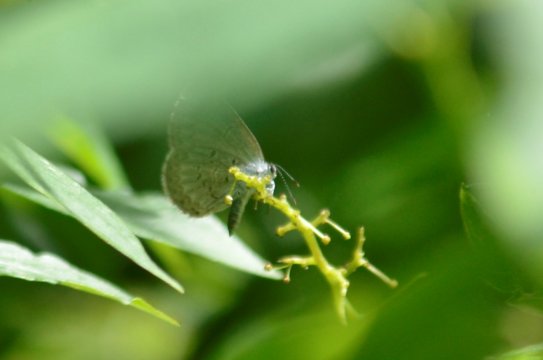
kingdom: Animalia
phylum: Arthropoda
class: Insecta
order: Lepidoptera
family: Lycaenidae
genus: Celastrina
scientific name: Celastrina
